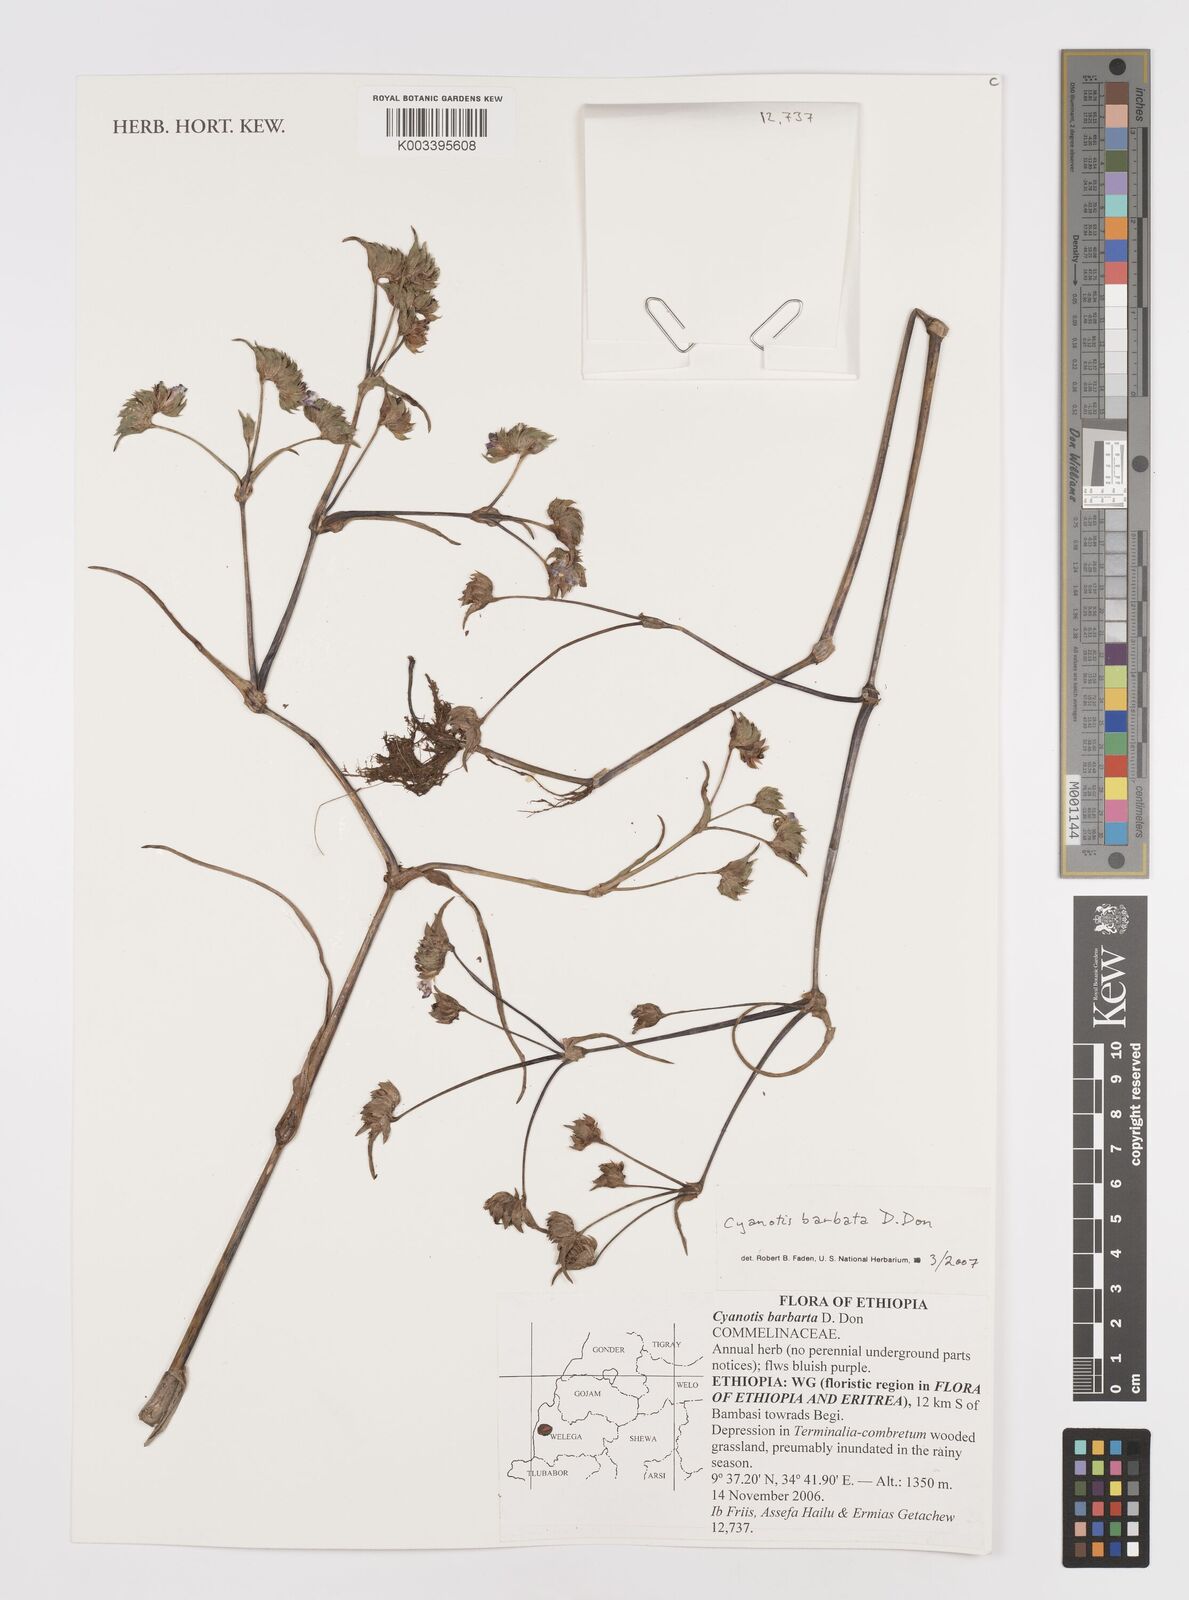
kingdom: Plantae
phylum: Tracheophyta
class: Liliopsida
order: Commelinales
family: Commelinaceae
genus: Cyanotis
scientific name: Cyanotis vaga
